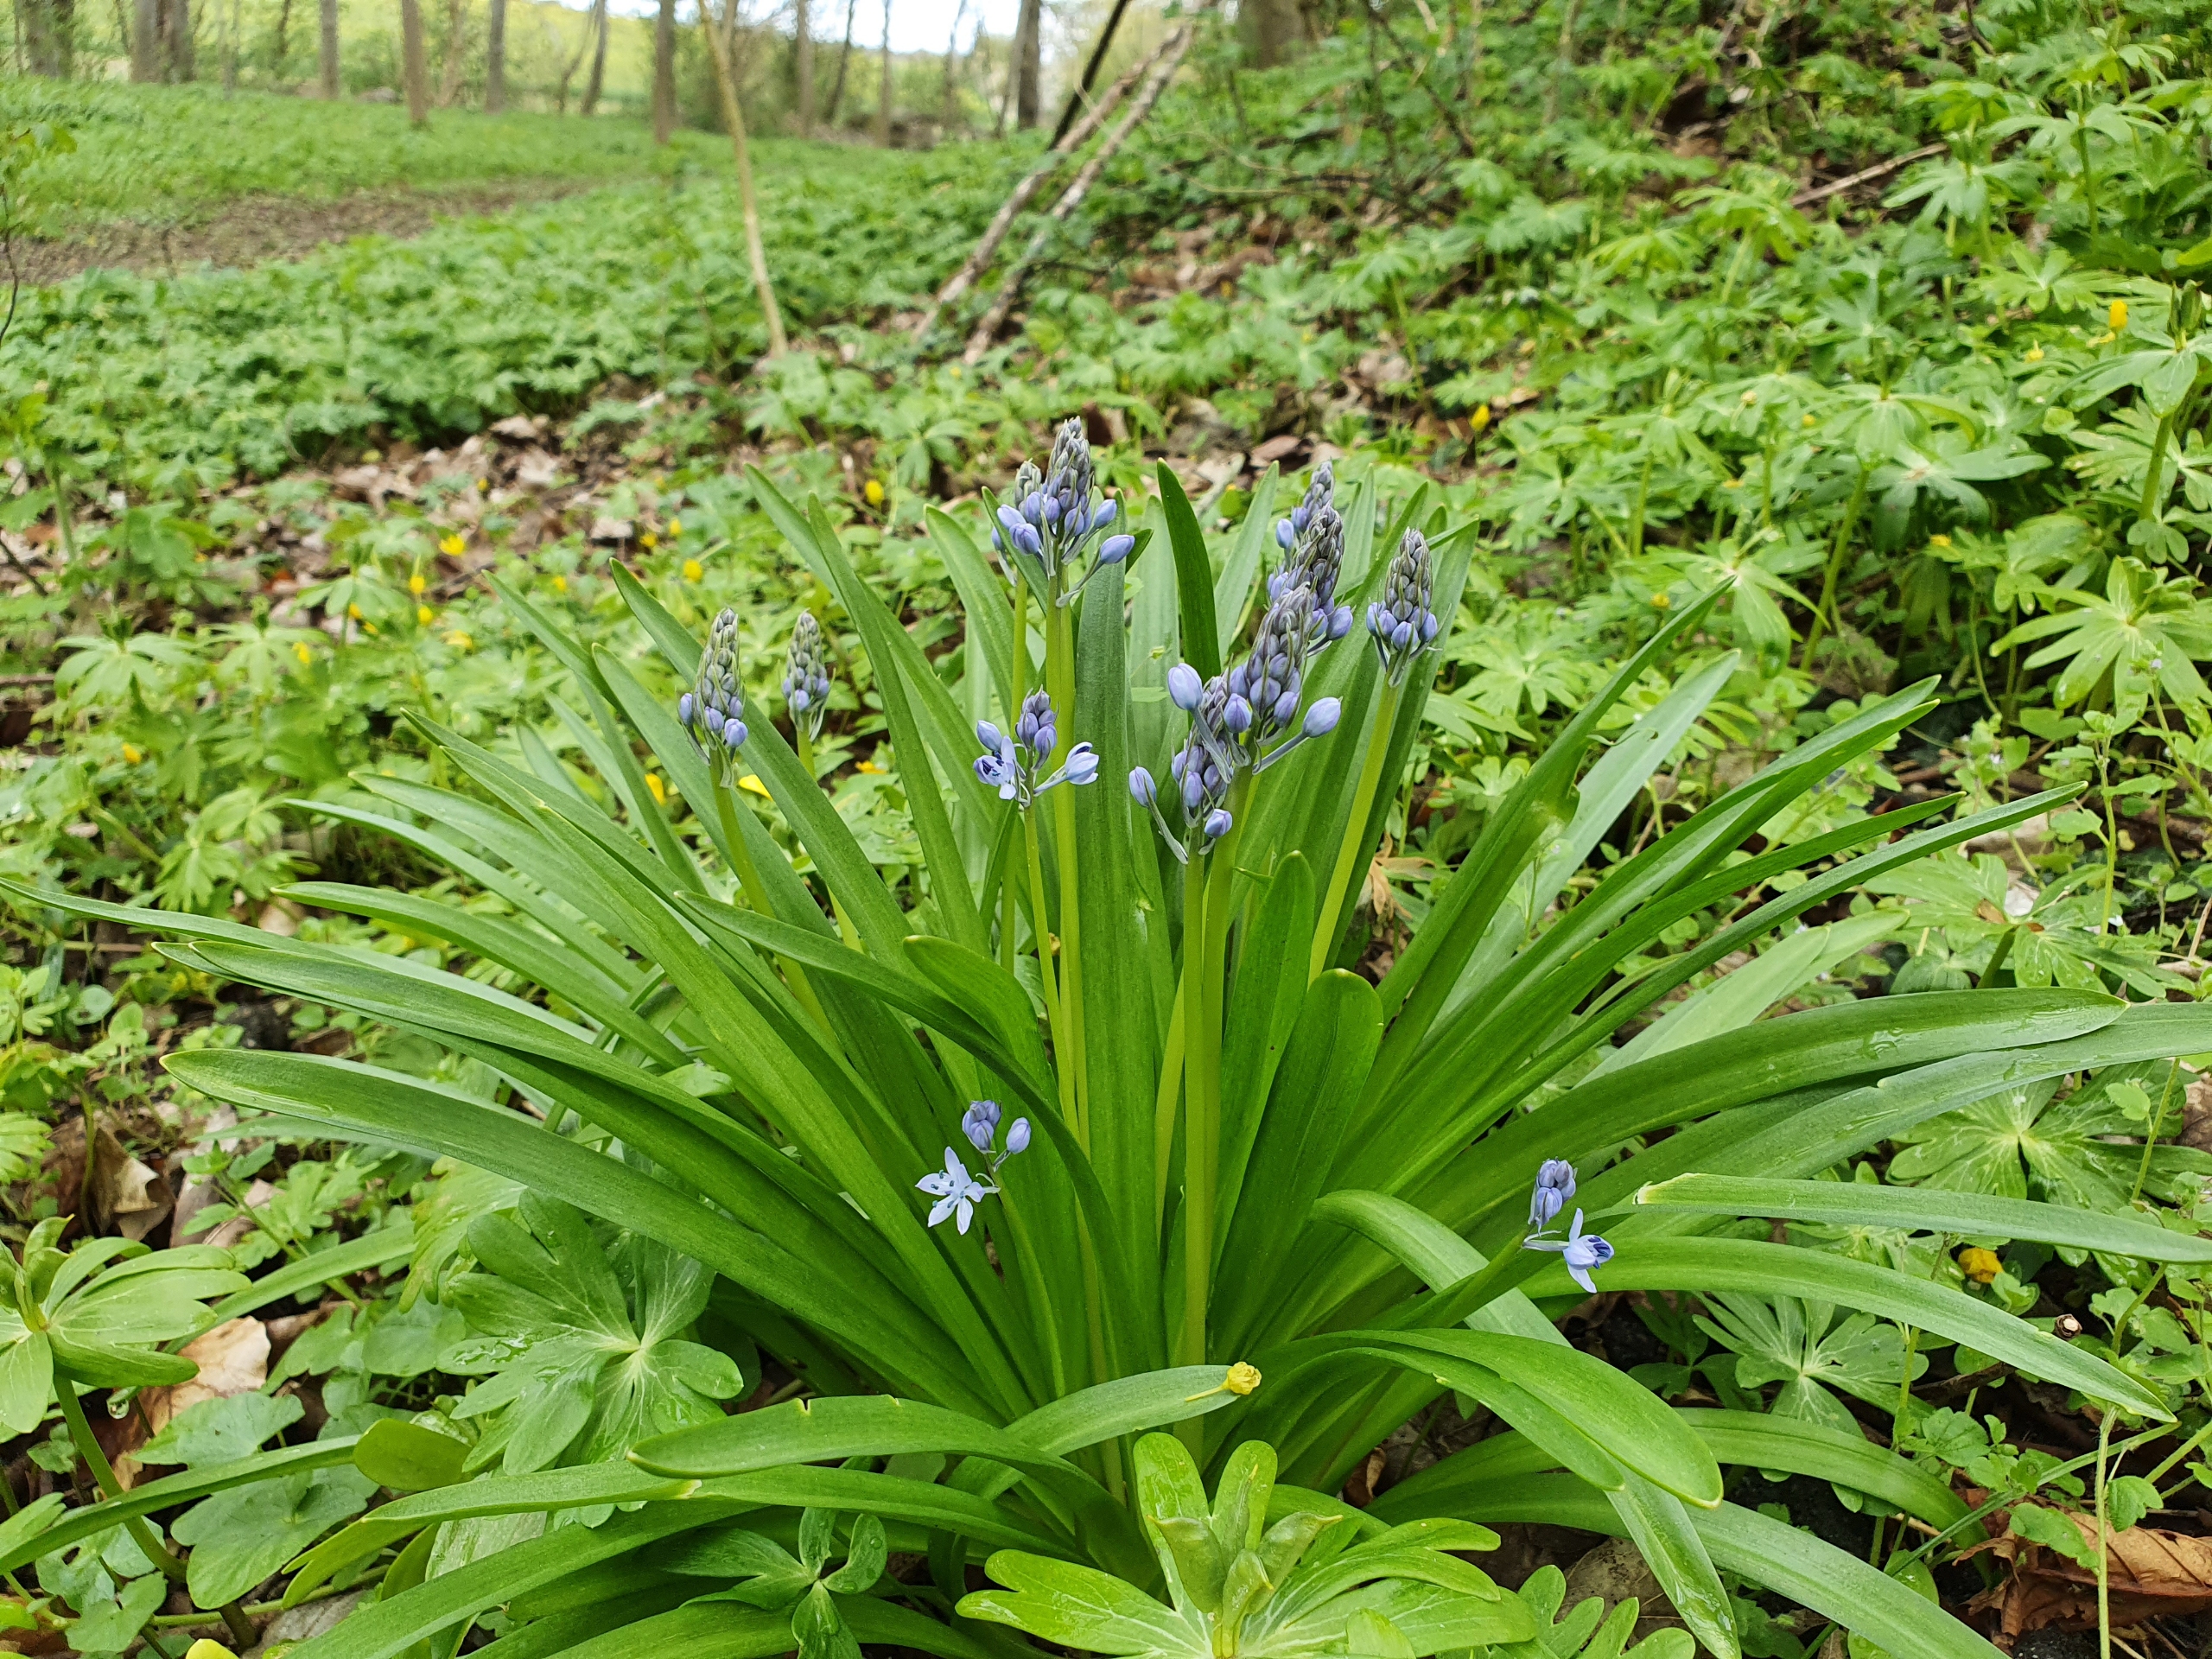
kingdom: Plantae
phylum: Tracheophyta
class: Liliopsida
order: Asparagales
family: Asparagaceae
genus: Hyacinthoides
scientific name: Hyacinthoides italica
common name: Italiensk skilla
